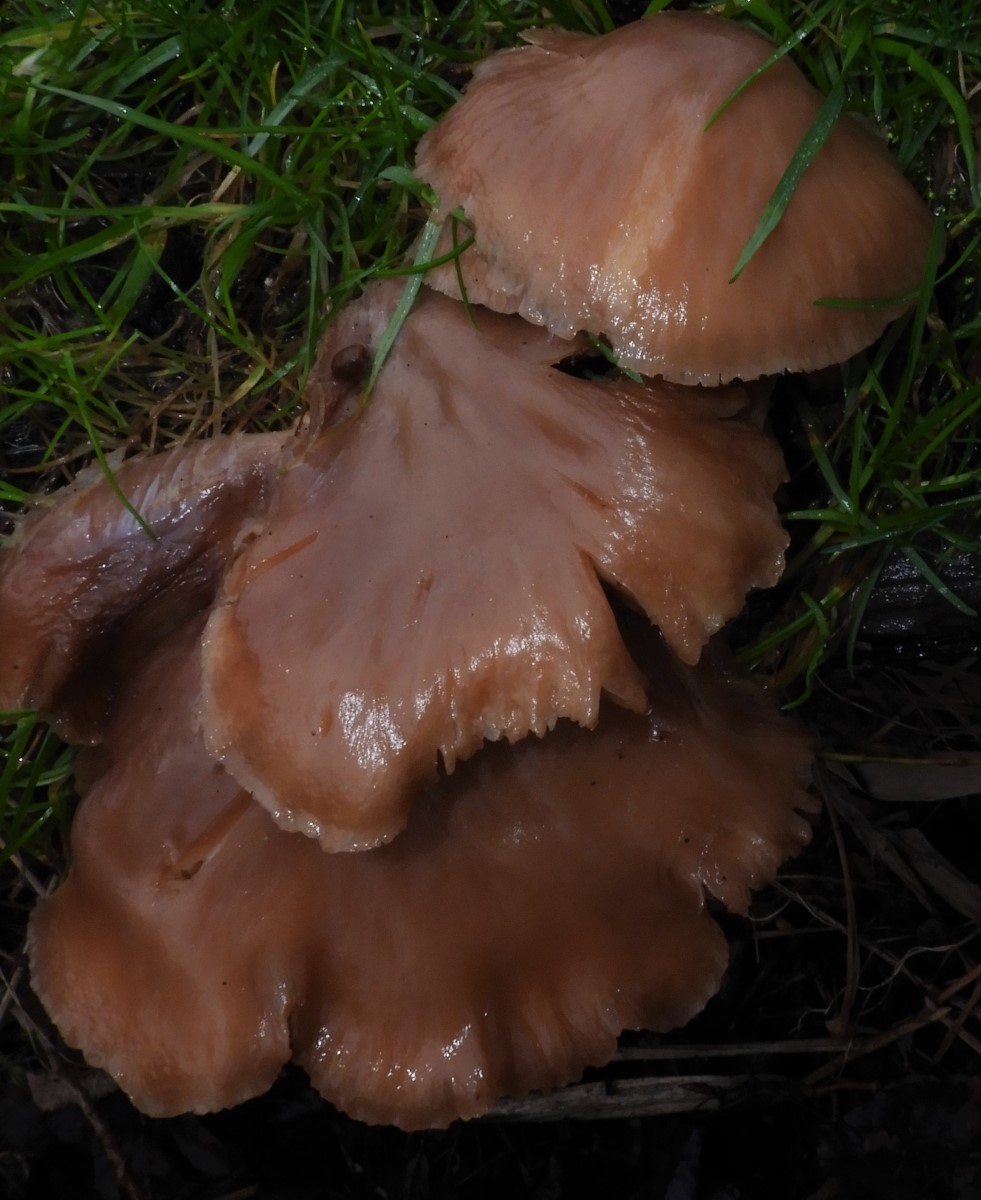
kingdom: Fungi
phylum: Basidiomycota
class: Agaricomycetes
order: Agaricales
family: Pleurotaceae
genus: Pleurotus
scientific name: Pleurotus ostreatus
